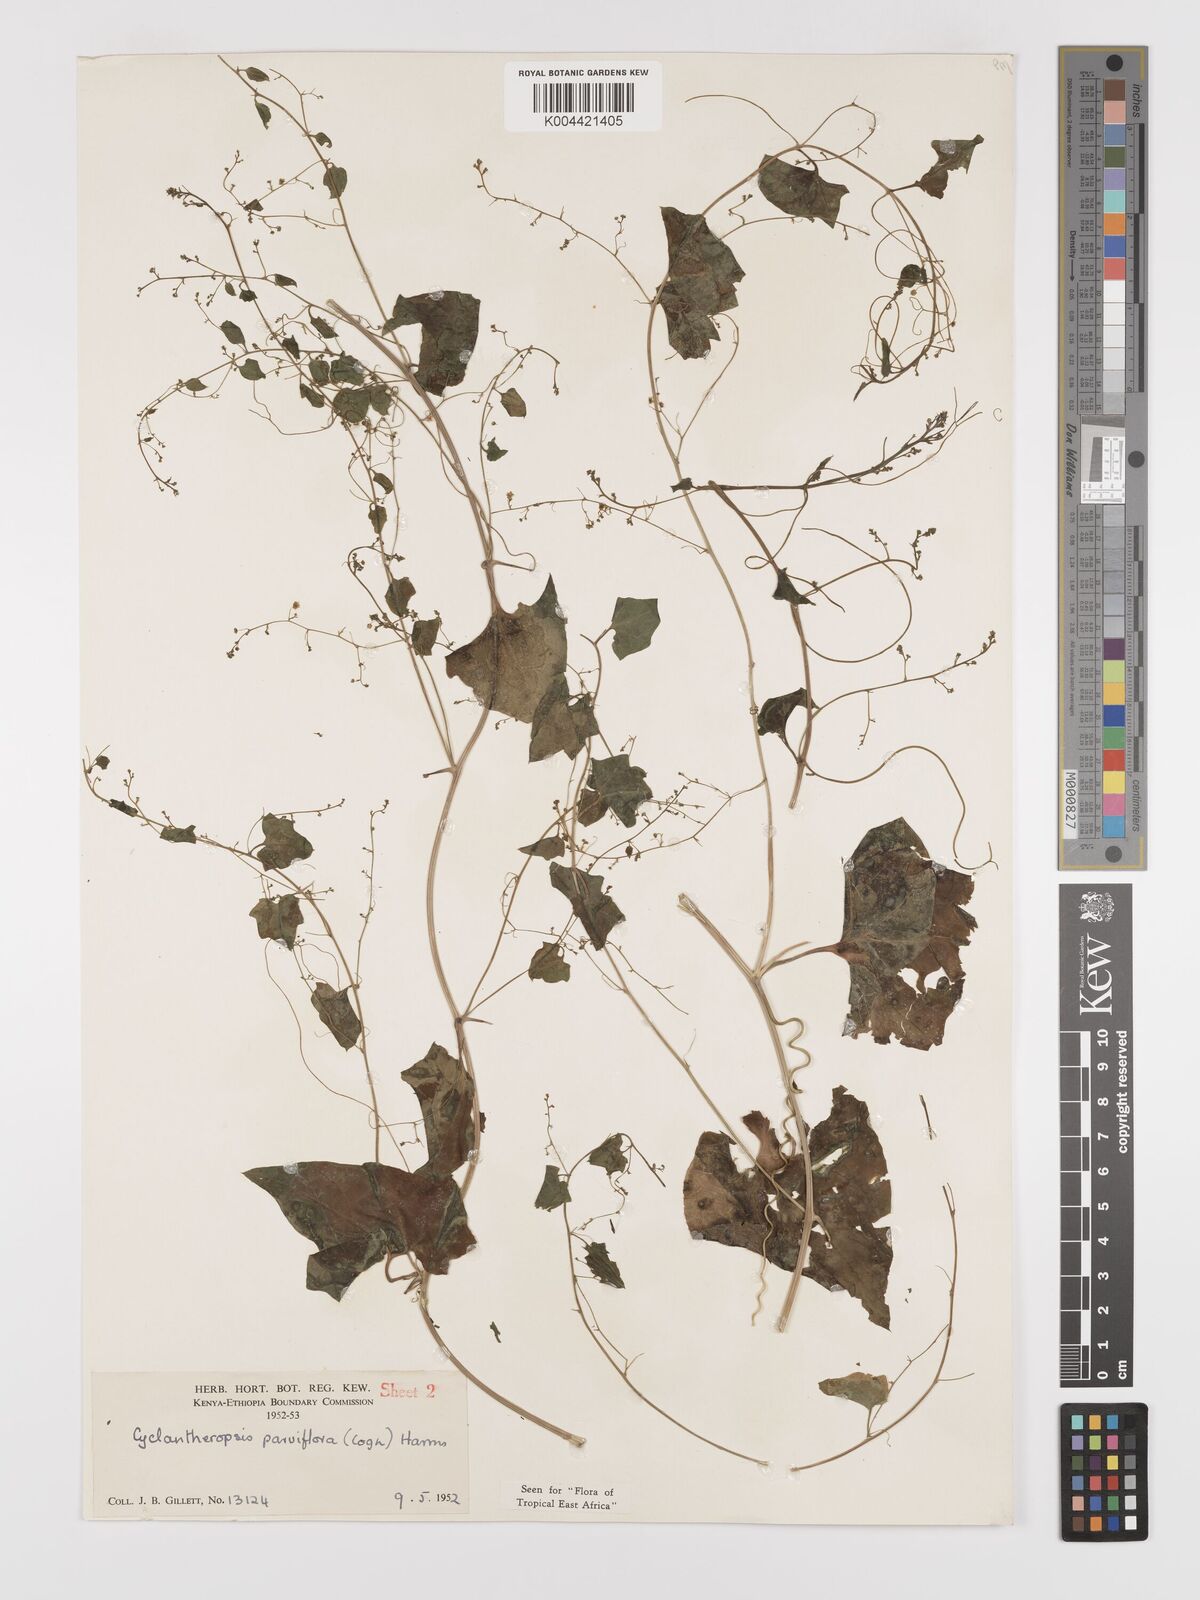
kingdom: Plantae
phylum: Tracheophyta
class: Magnoliopsida
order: Cucurbitales
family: Cucurbitaceae
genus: Cyclantheropsis
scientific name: Cyclantheropsis parviflora
